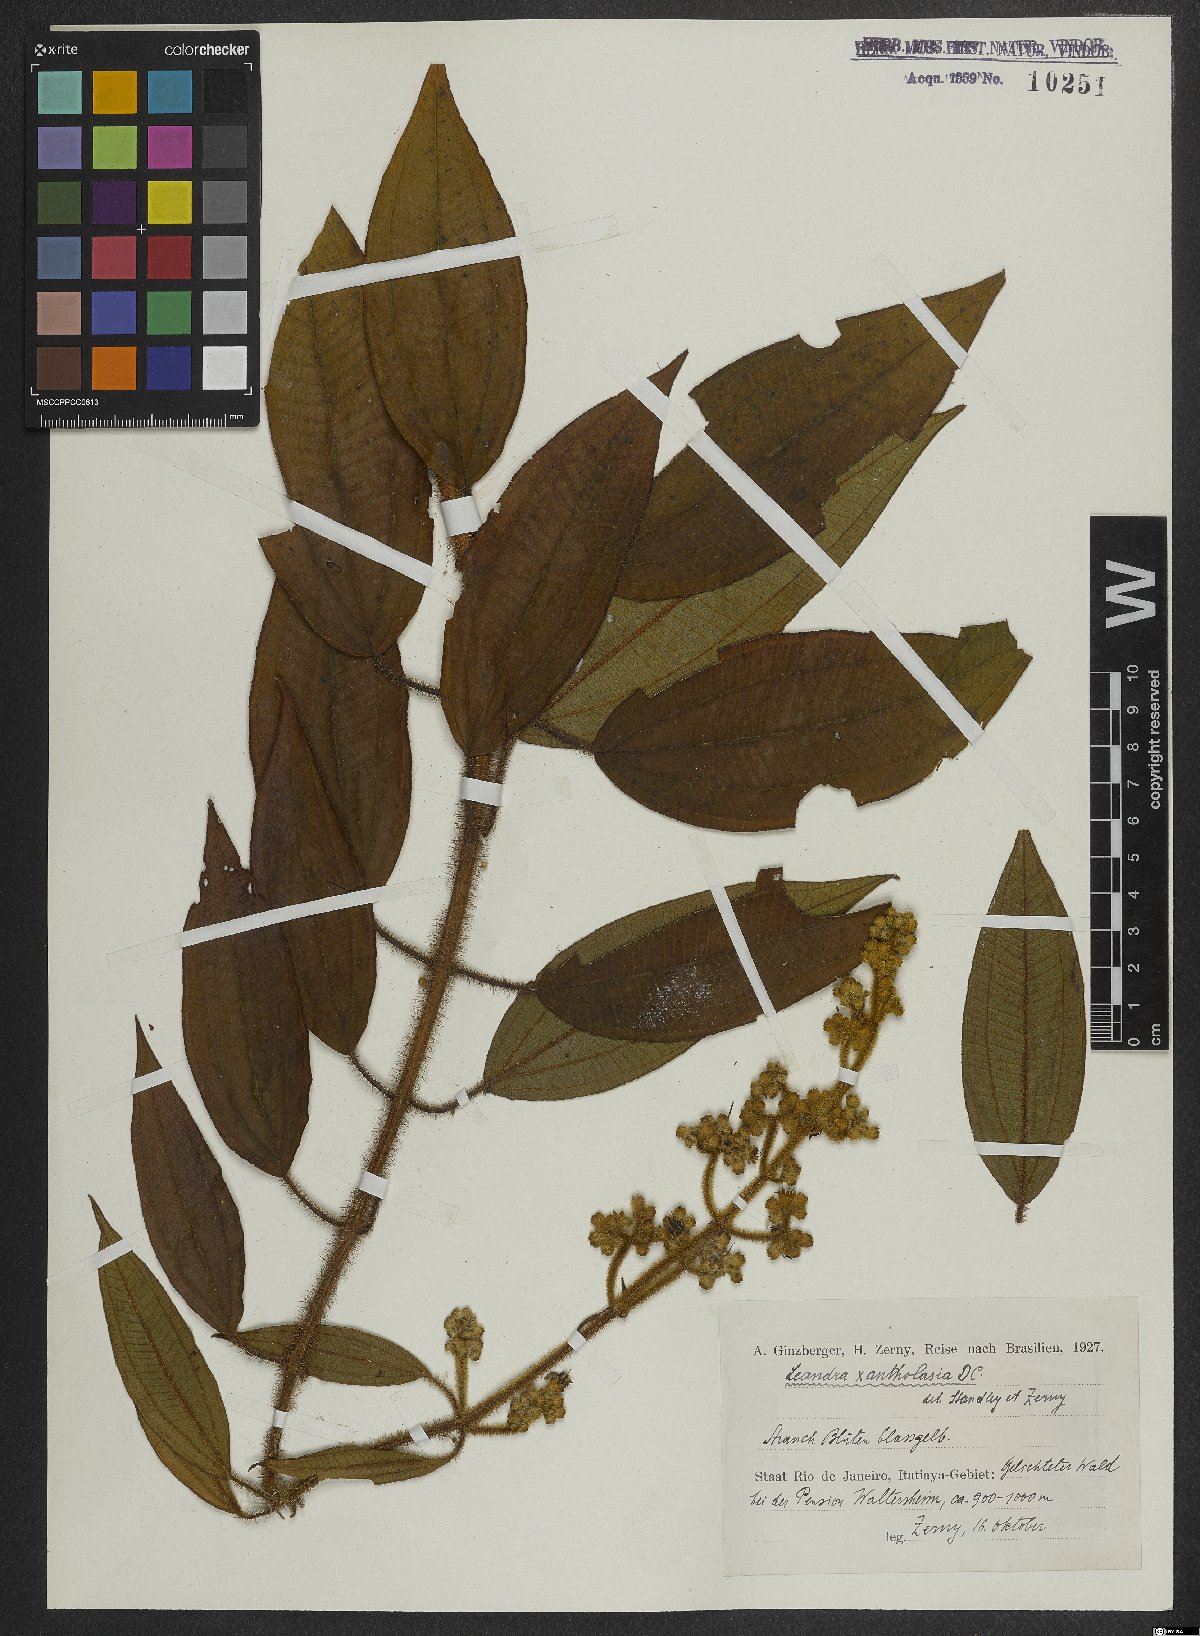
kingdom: Plantae
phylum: Tracheophyta
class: Magnoliopsida
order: Myrtales
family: Melastomataceae
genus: Miconia
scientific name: Miconia xantholasia
